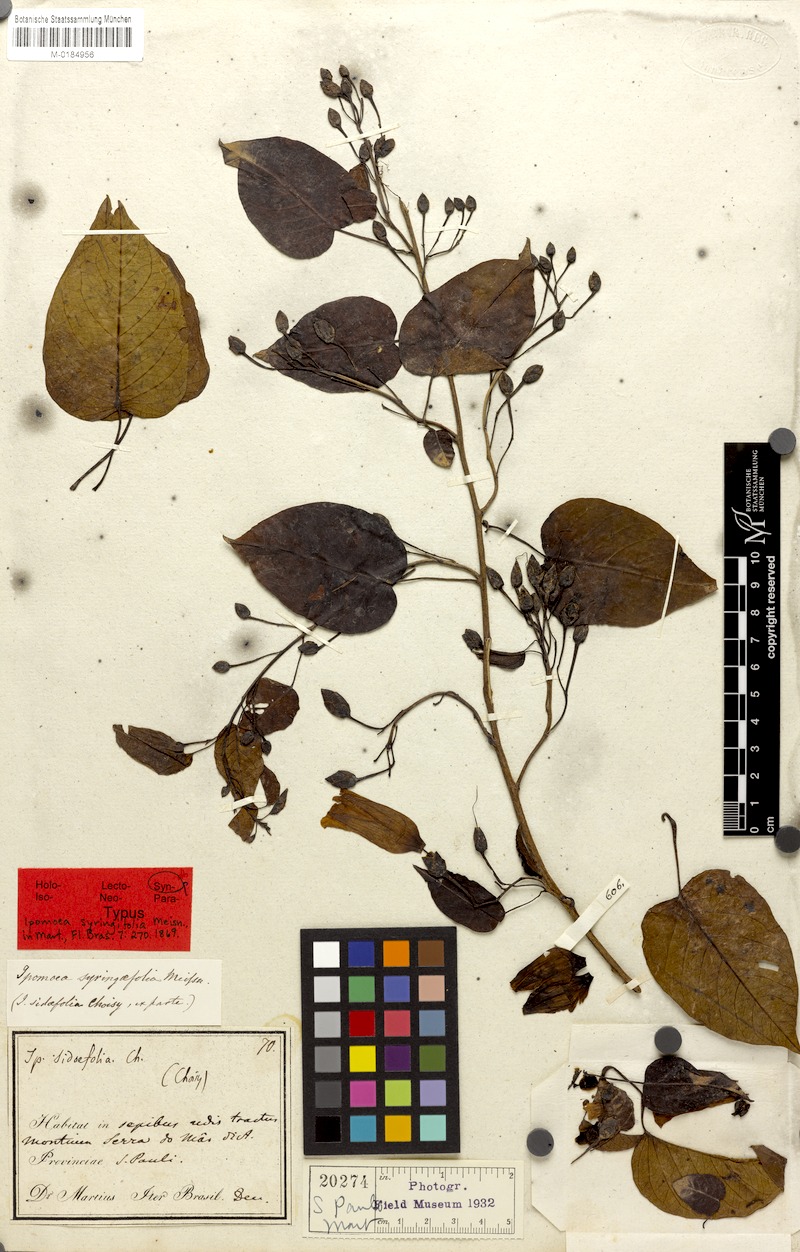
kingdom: Plantae
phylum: Tracheophyta
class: Magnoliopsida
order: Solanales
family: Convolvulaceae
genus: Ipomoea
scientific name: Ipomoea syringifolia
